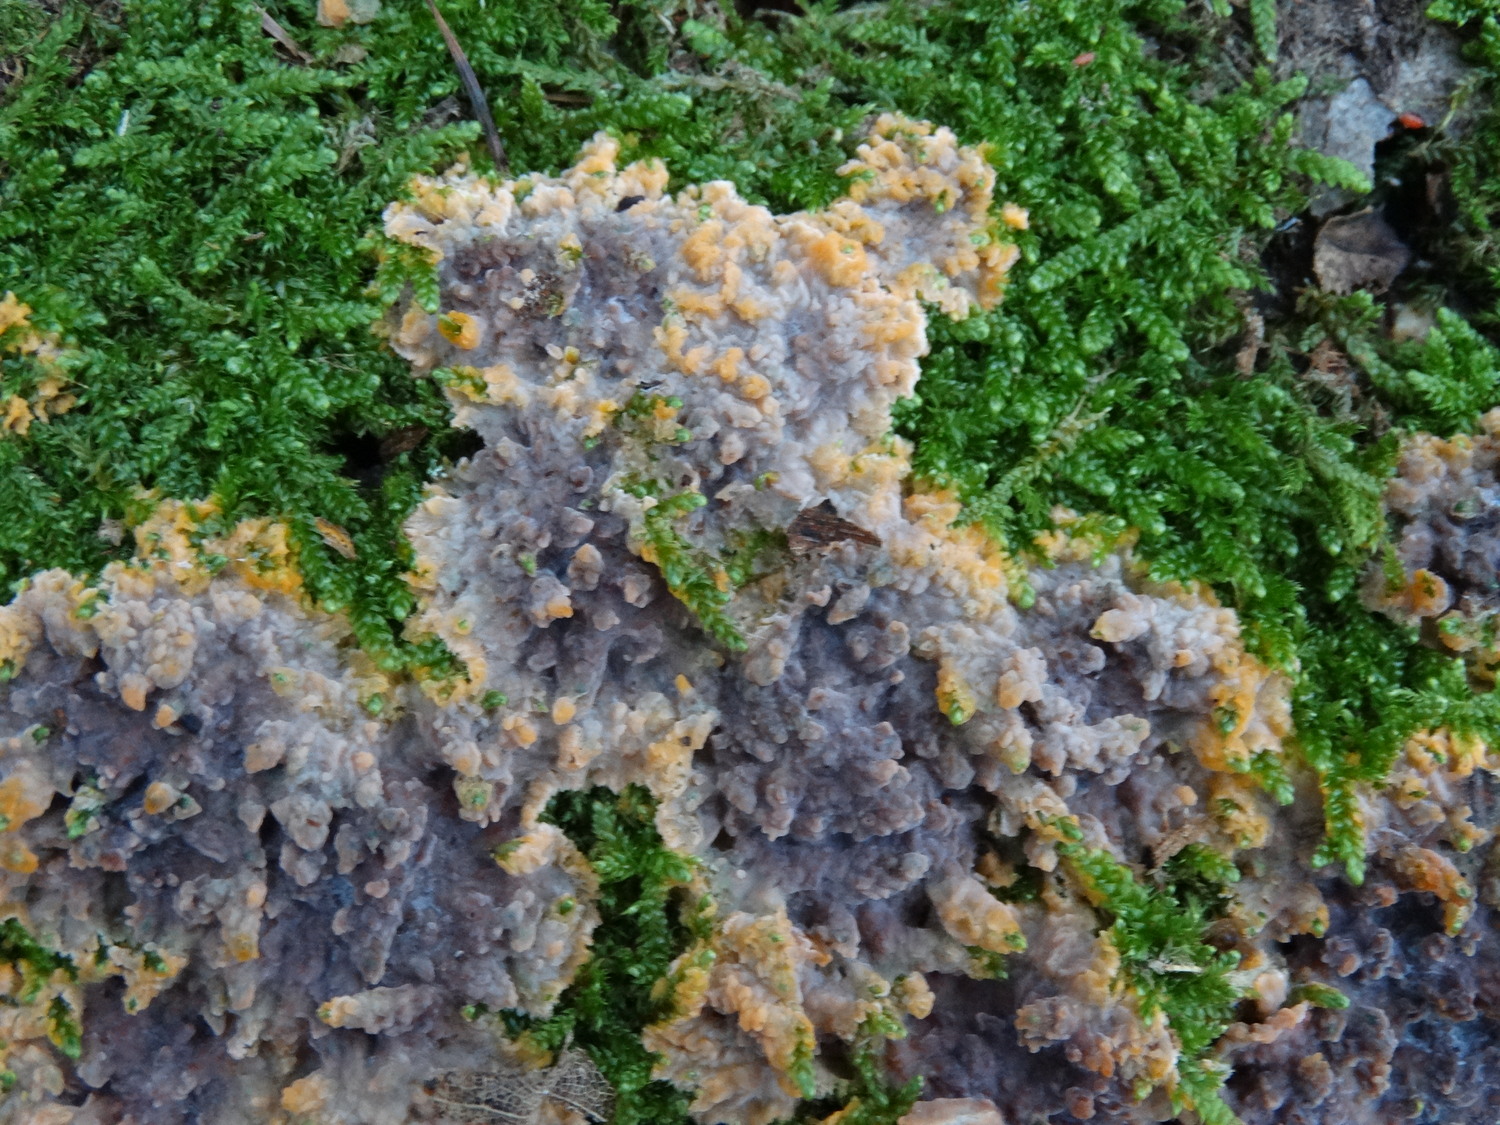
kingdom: Fungi
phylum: Basidiomycota
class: Agaricomycetes
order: Polyporales
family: Meruliaceae
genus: Phlebia
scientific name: Phlebia radiata
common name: stråle-åresvamp
